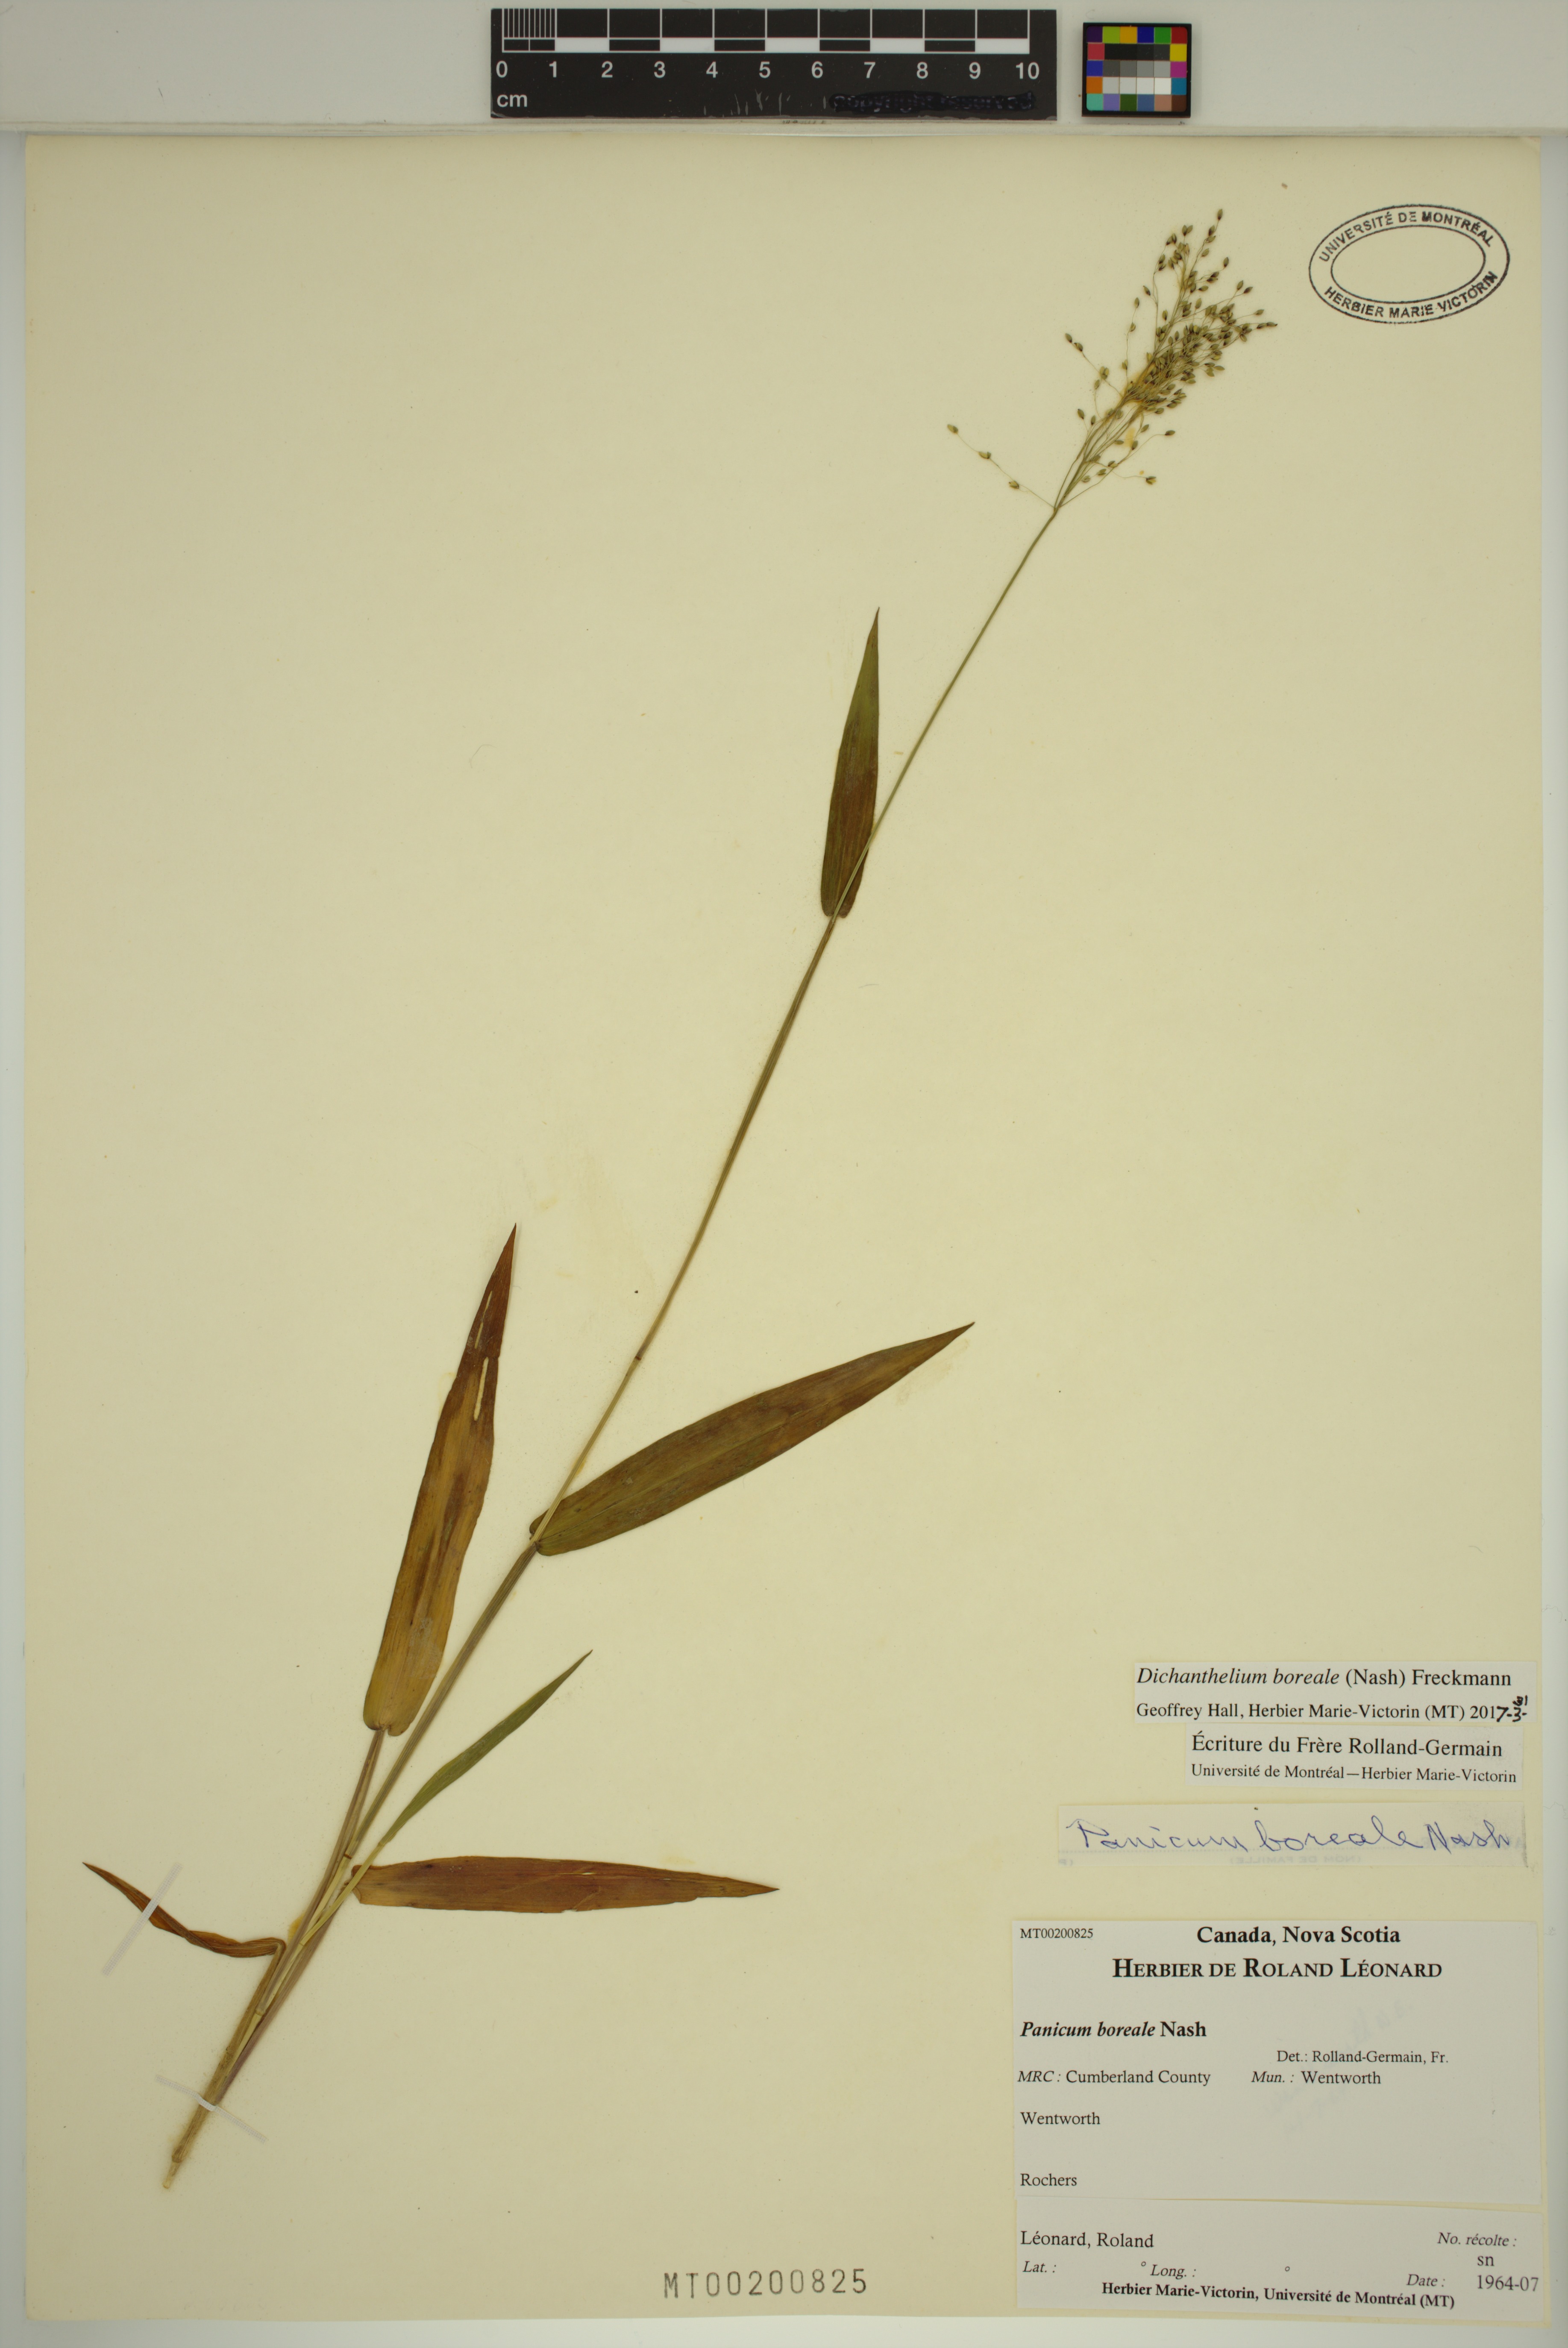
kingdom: Plantae
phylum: Tracheophyta
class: Liliopsida
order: Poales
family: Poaceae
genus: Dichanthelium
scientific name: Dichanthelium boreale
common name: Northern panicgrass
